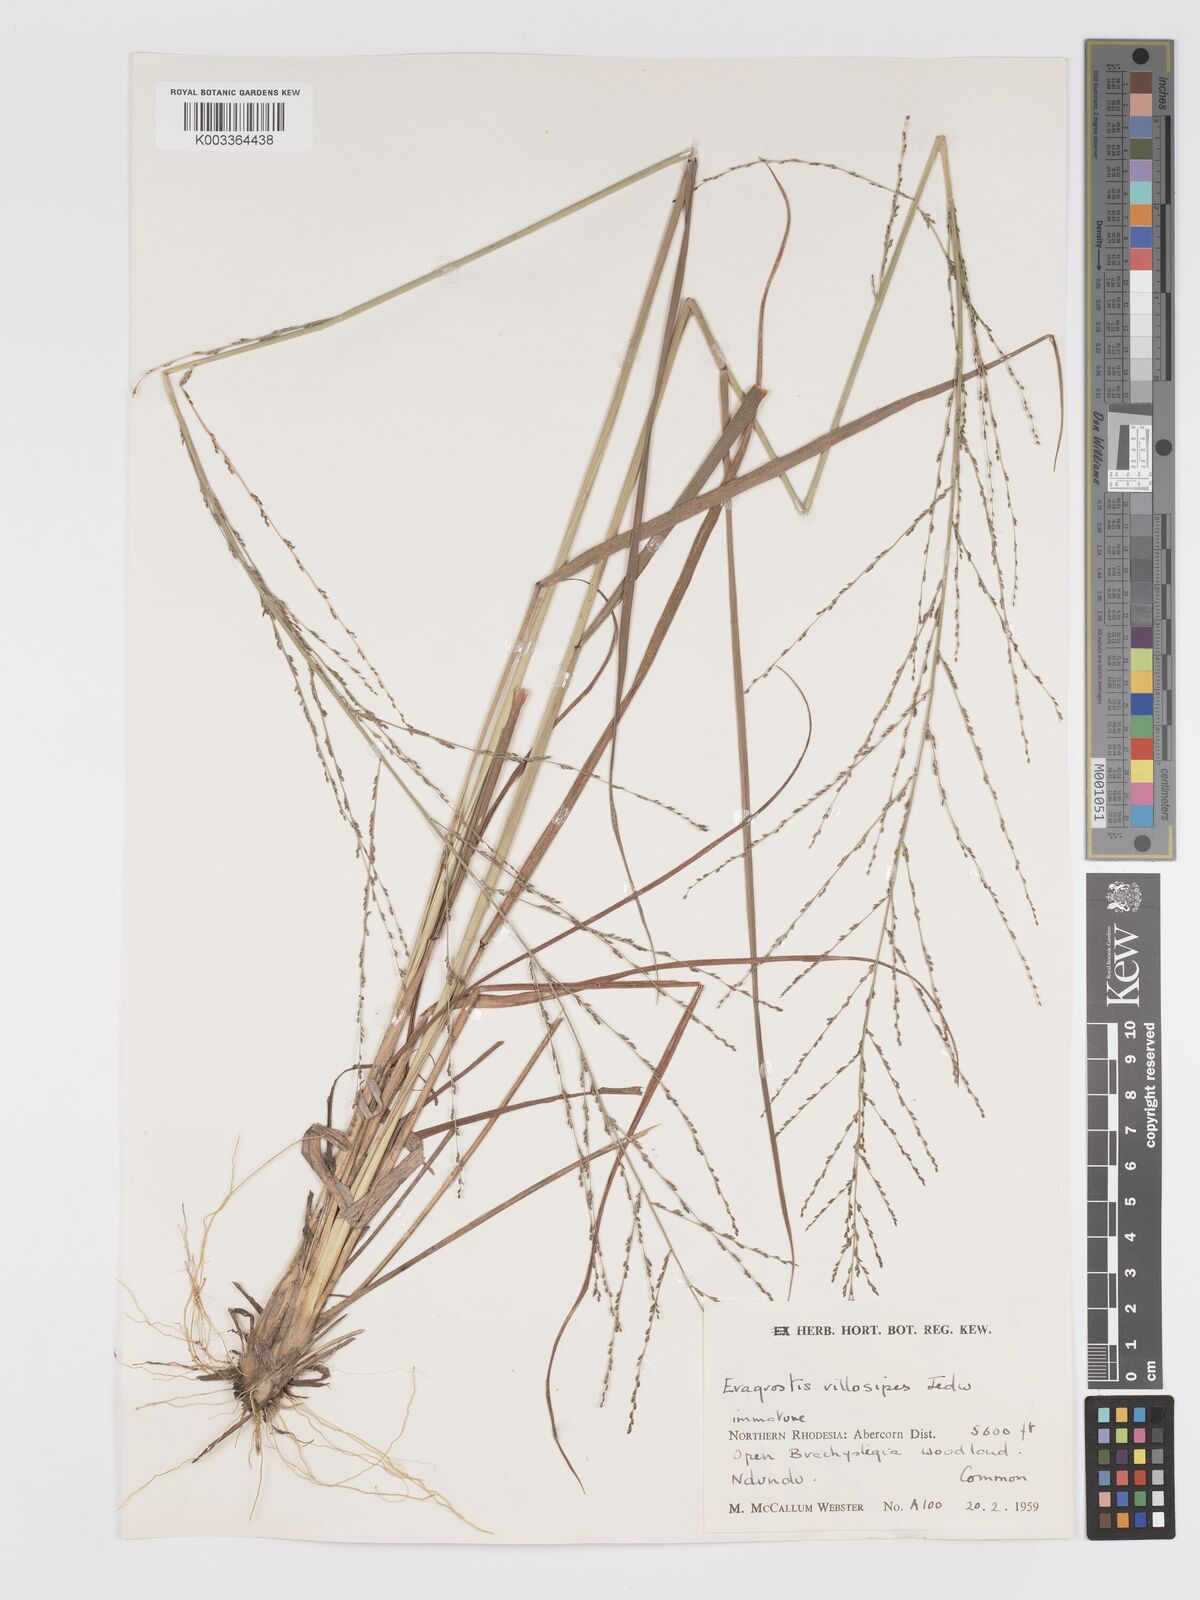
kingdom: Plantae
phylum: Tracheophyta
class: Liliopsida
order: Poales
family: Poaceae
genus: Eragrostis
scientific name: Eragrostis sclerantha
